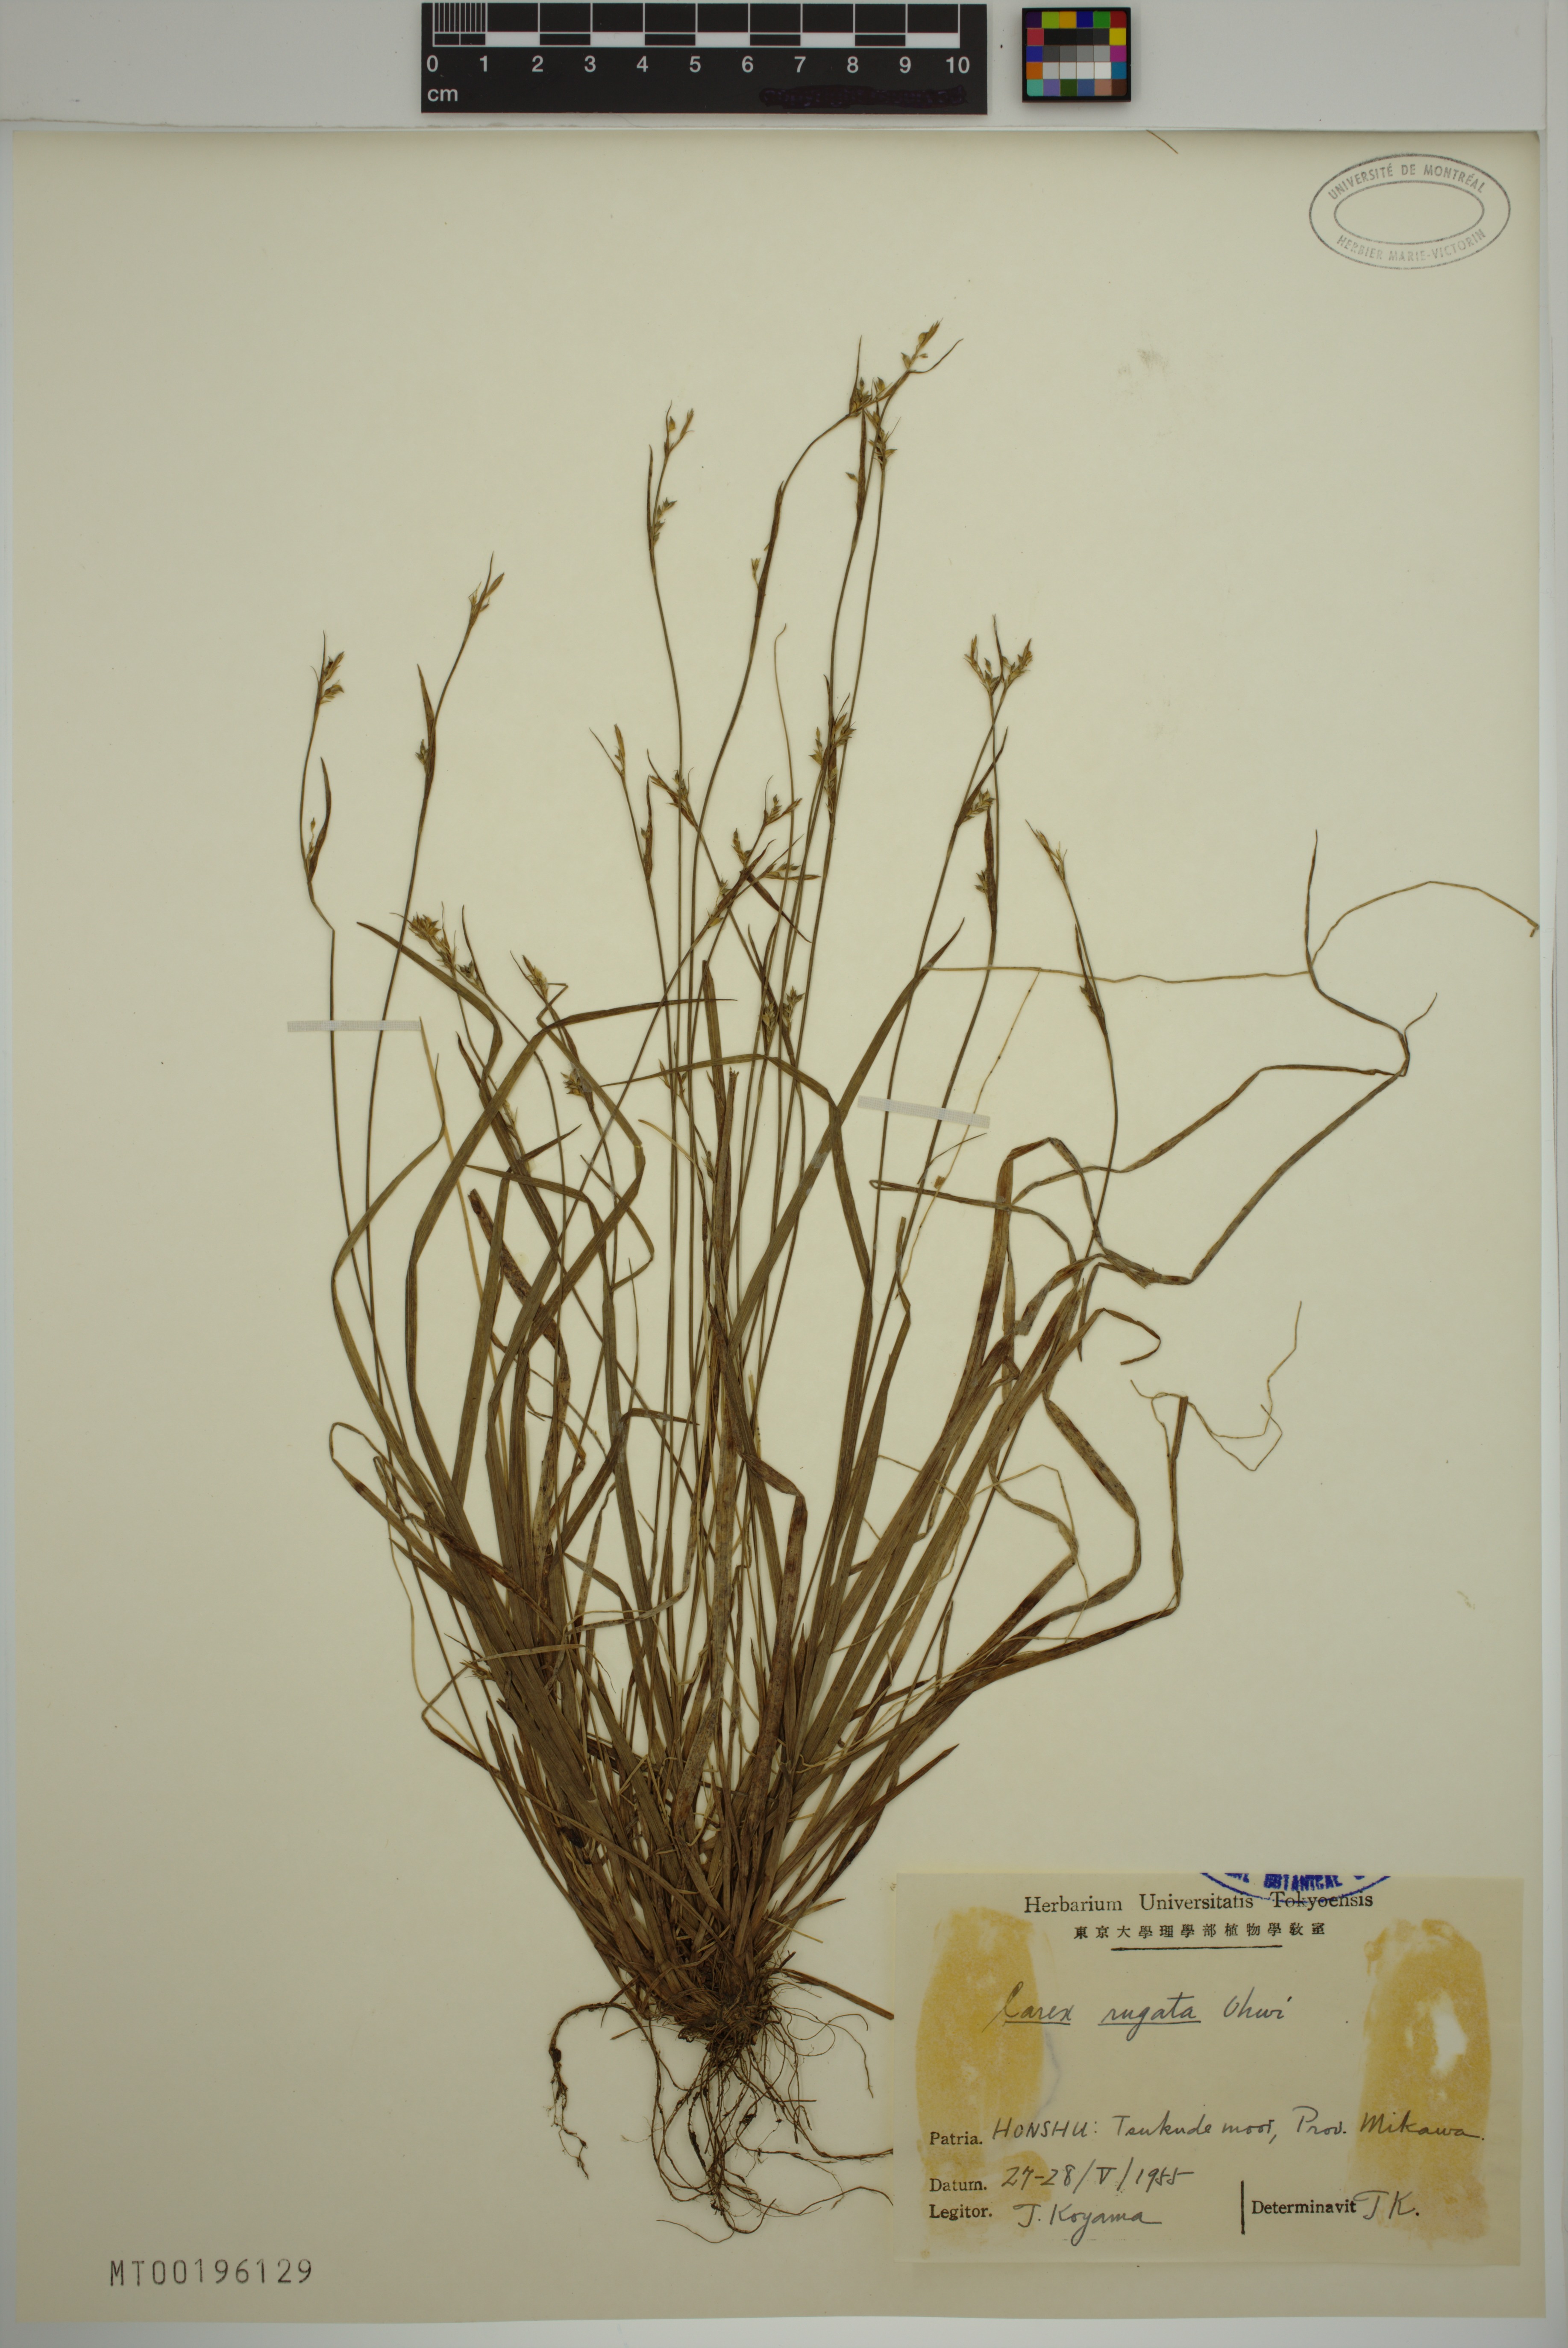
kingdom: Plantae
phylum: Tracheophyta
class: Liliopsida
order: Poales
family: Cyperaceae
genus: Carex
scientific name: Carex rugata
